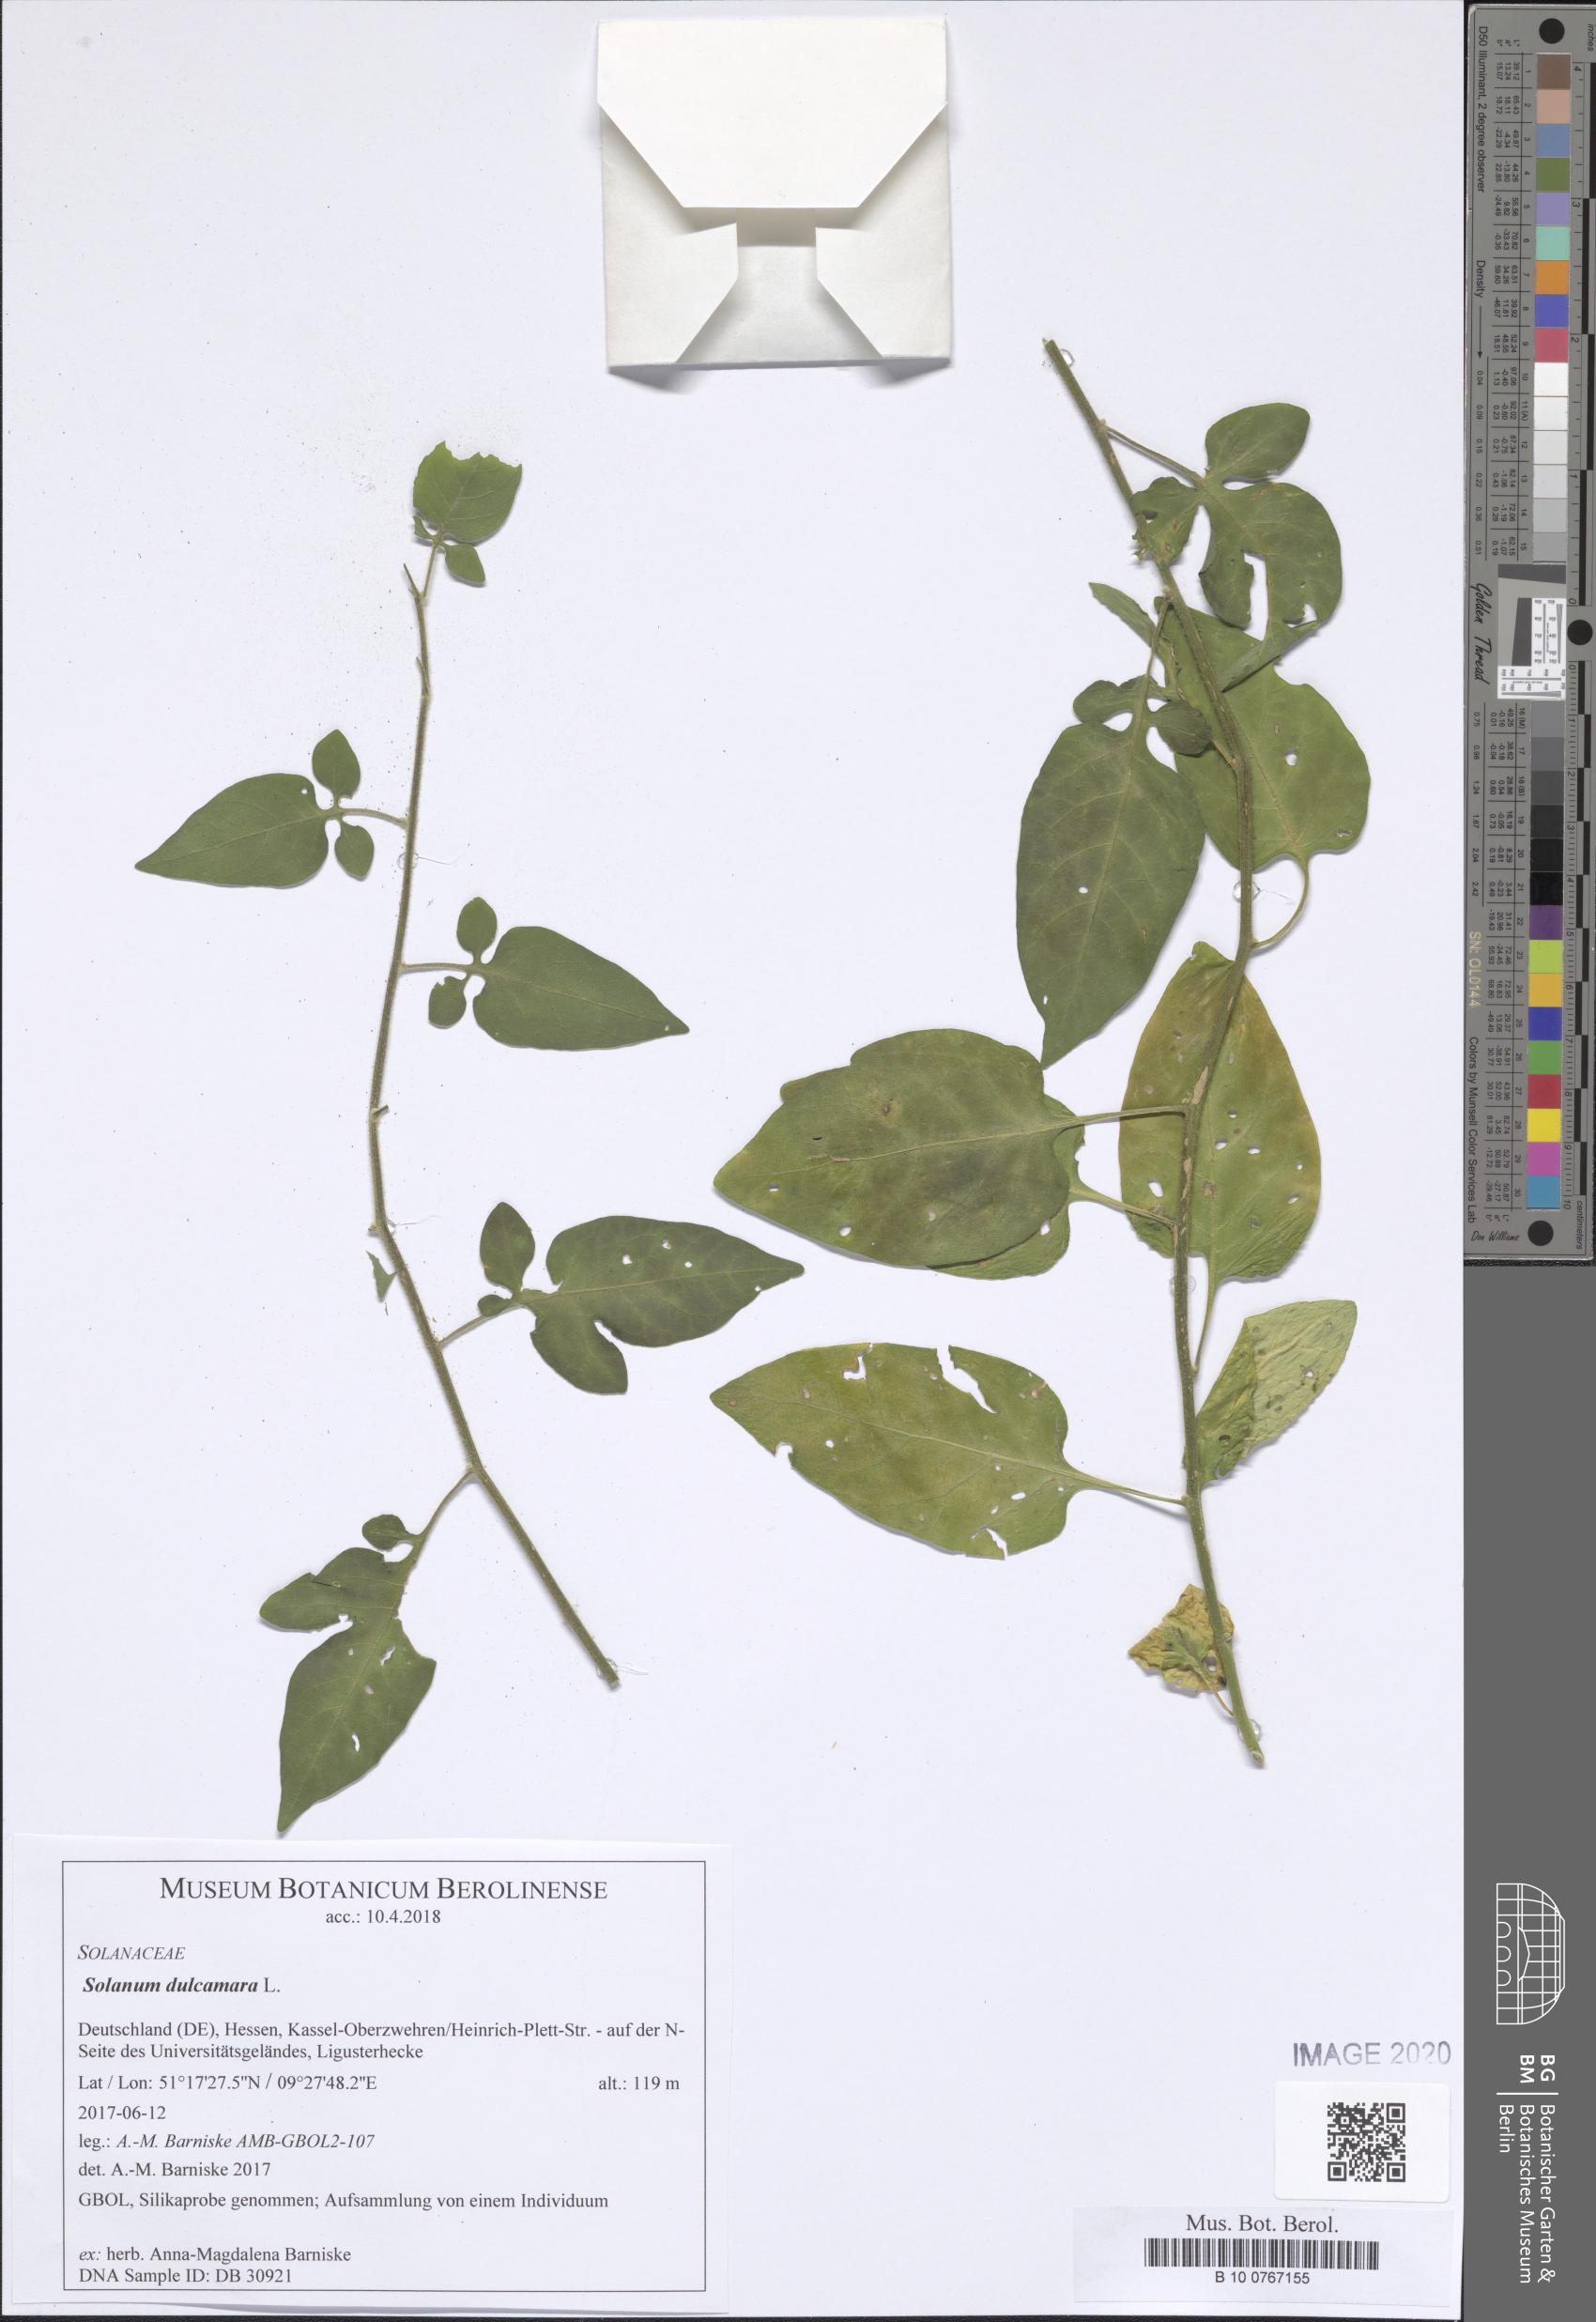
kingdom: Plantae
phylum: Tracheophyta
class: Magnoliopsida
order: Solanales
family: Solanaceae
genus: Solanum
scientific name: Solanum dulcamara
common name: Climbing nightshade
